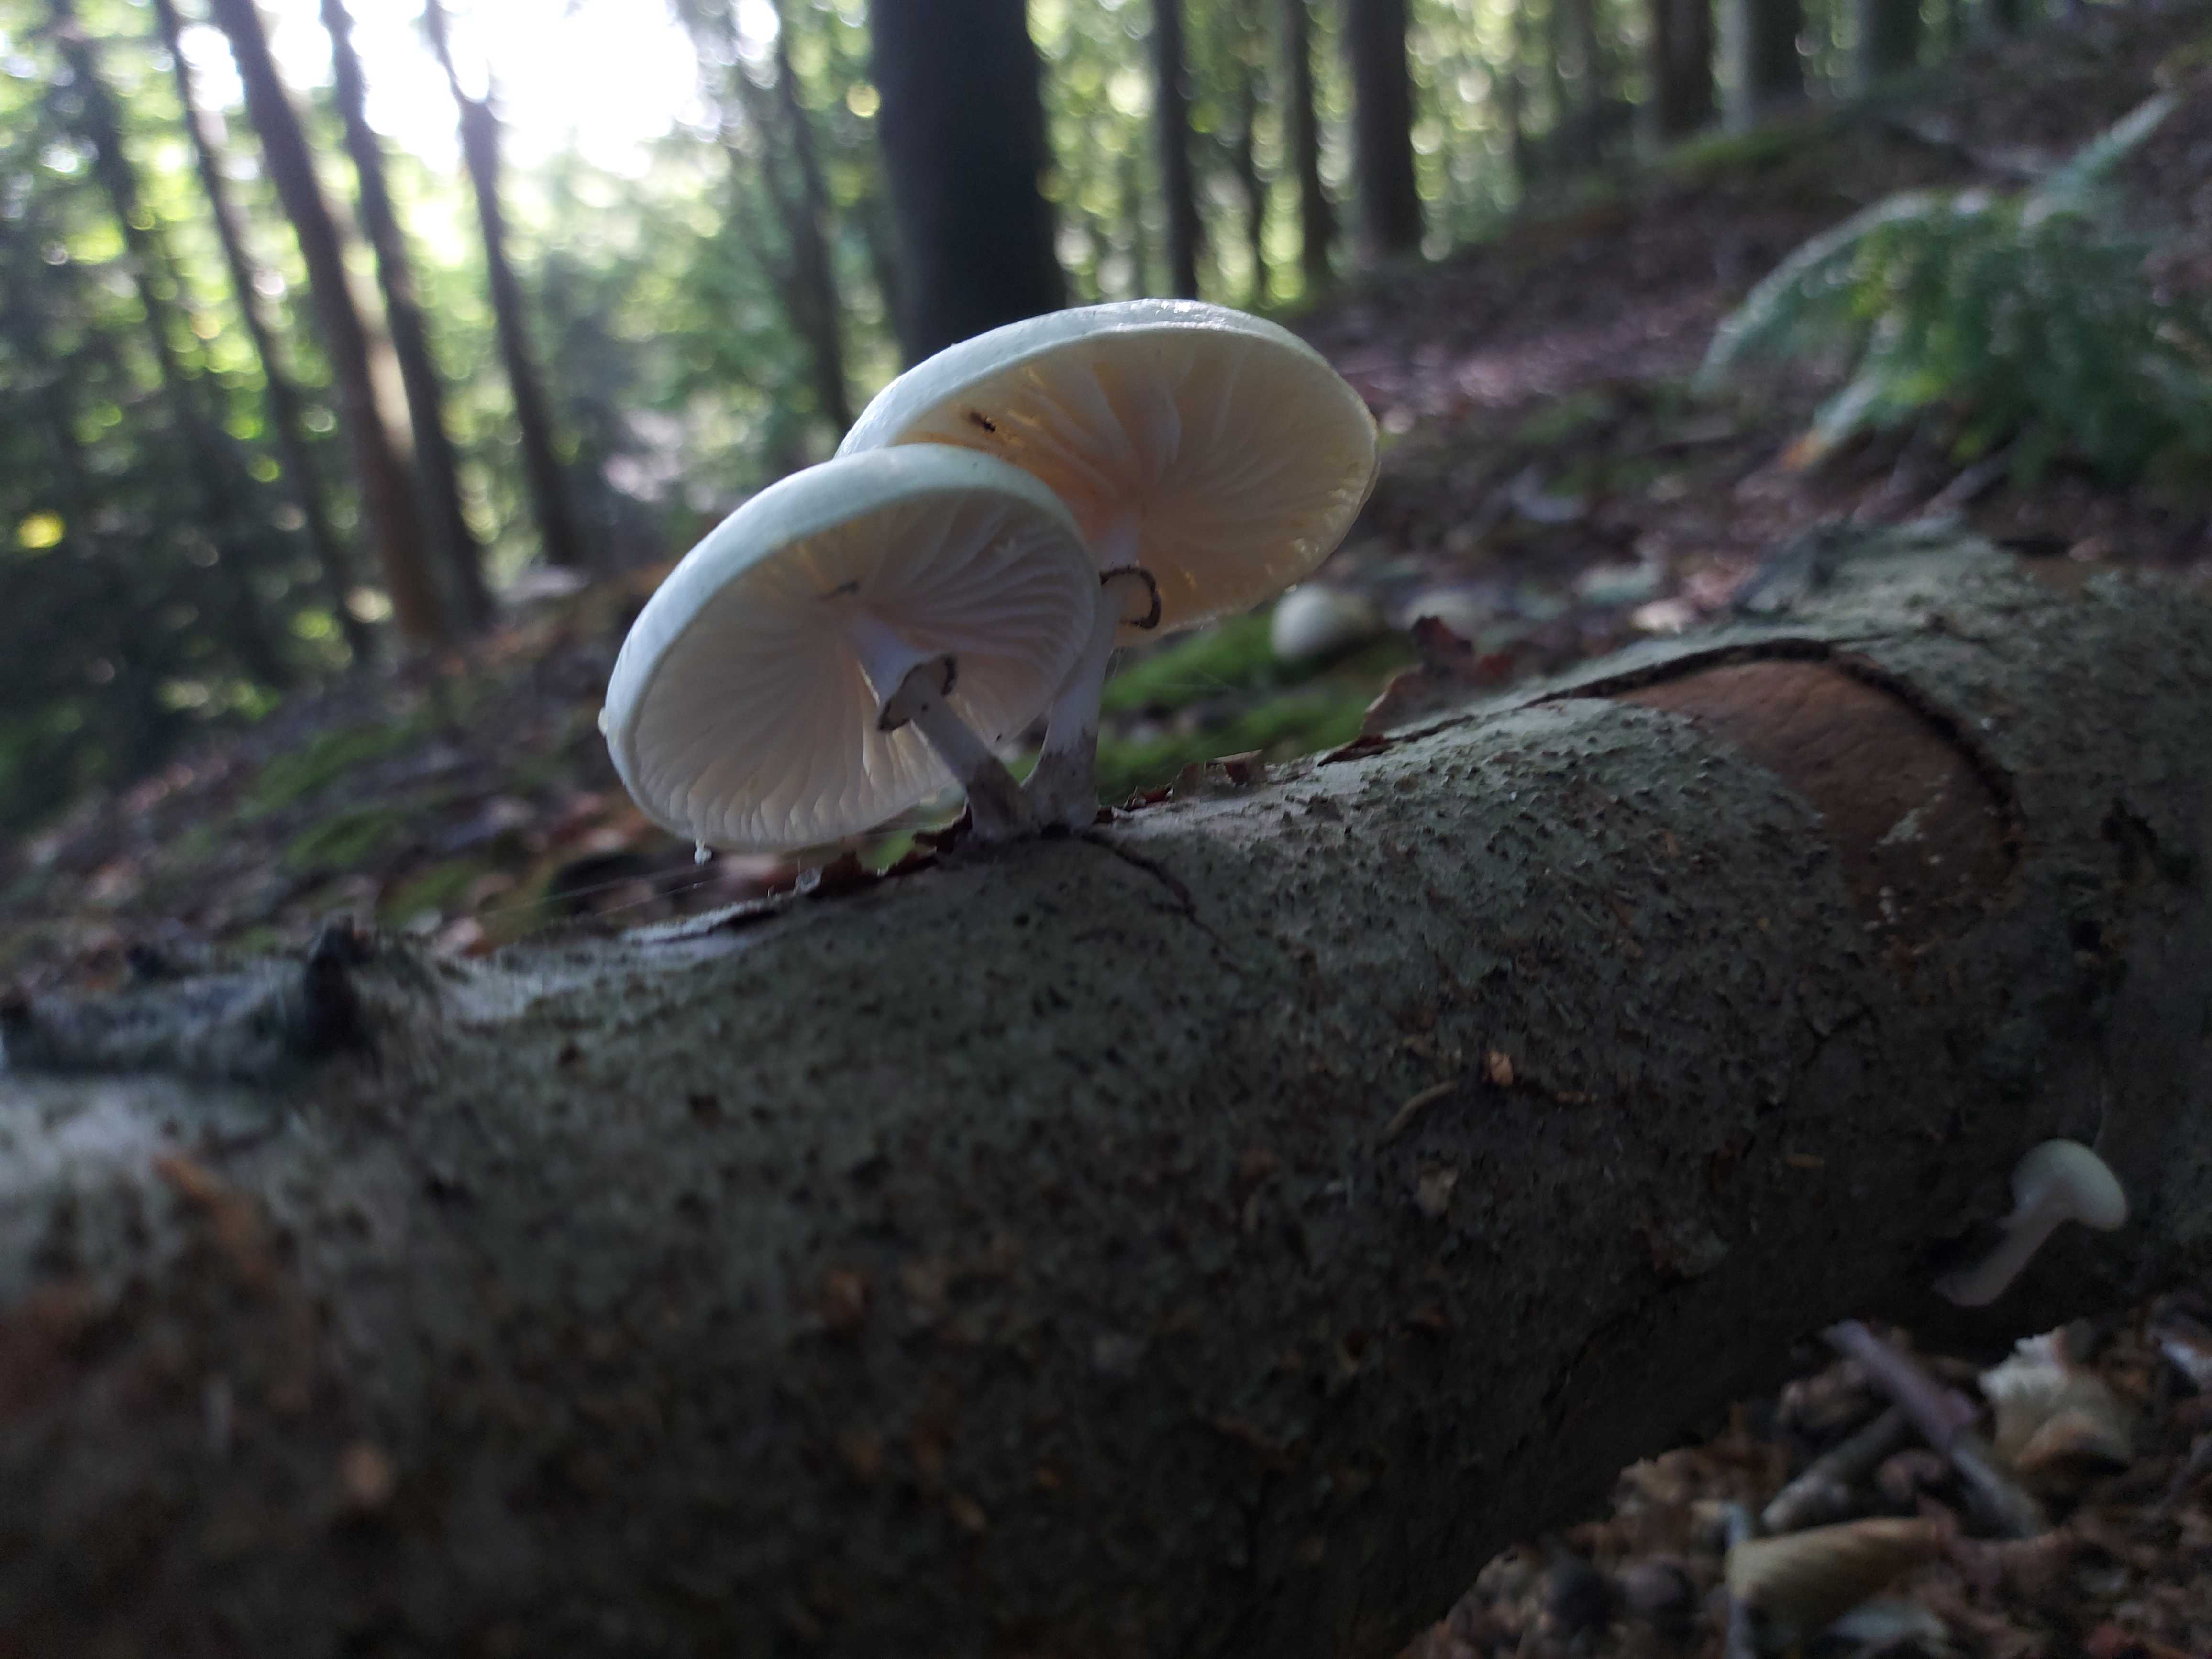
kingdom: Fungi
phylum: Basidiomycota
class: Agaricomycetes
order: Agaricales
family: Physalacriaceae
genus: Mucidula
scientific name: Mucidula mucida
